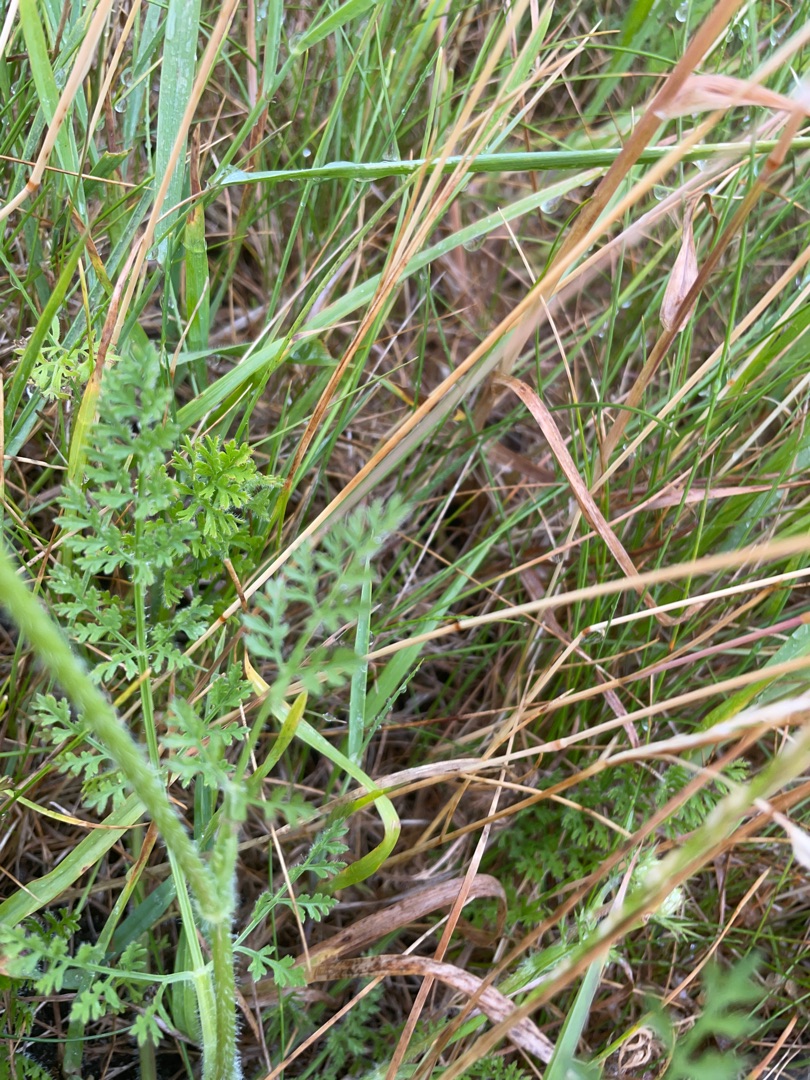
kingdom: Plantae
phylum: Tracheophyta
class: Magnoliopsida
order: Apiales
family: Apiaceae
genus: Daucus
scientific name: Daucus carota
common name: Gulerod
